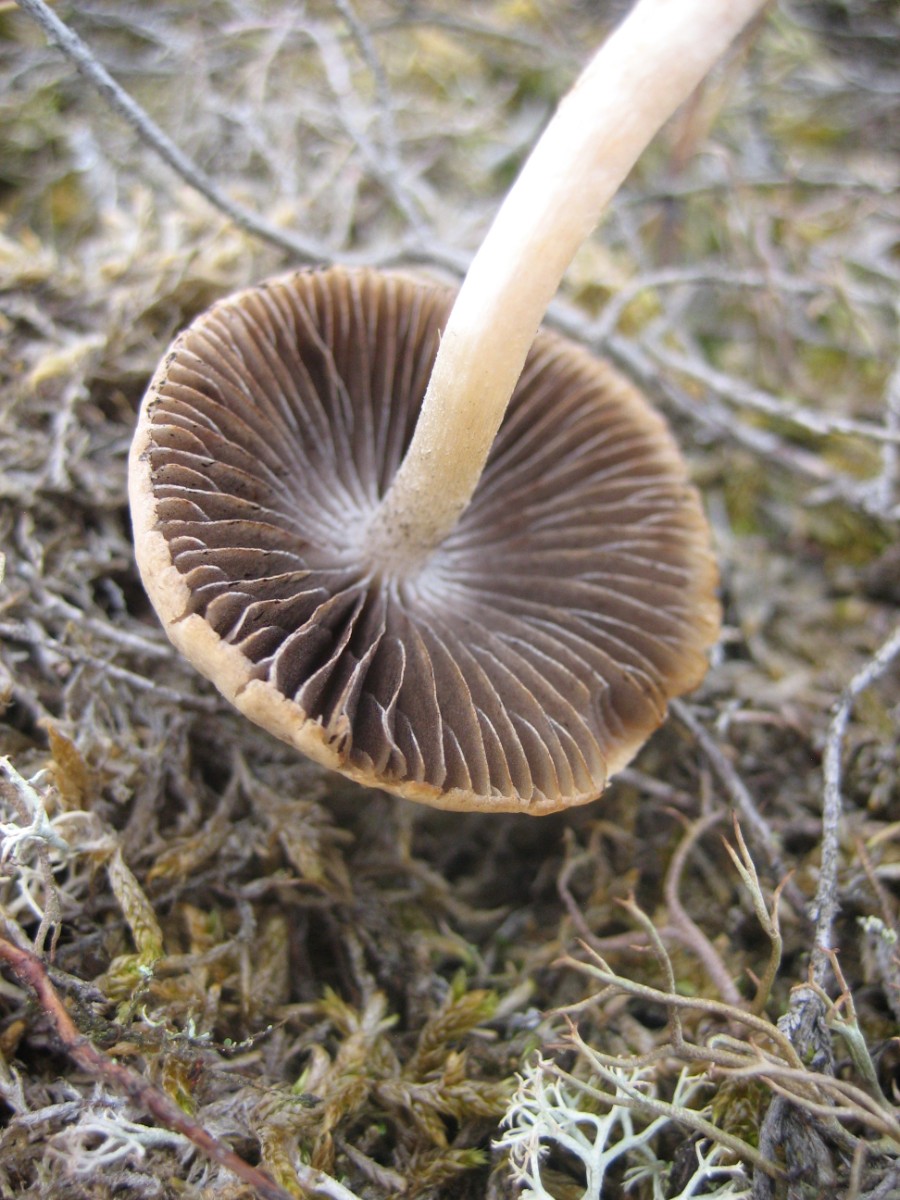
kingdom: Fungi
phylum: Basidiomycota
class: Agaricomycetes
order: Agaricales
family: Psathyrellaceae
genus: Psathyrella
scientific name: Psathyrella
